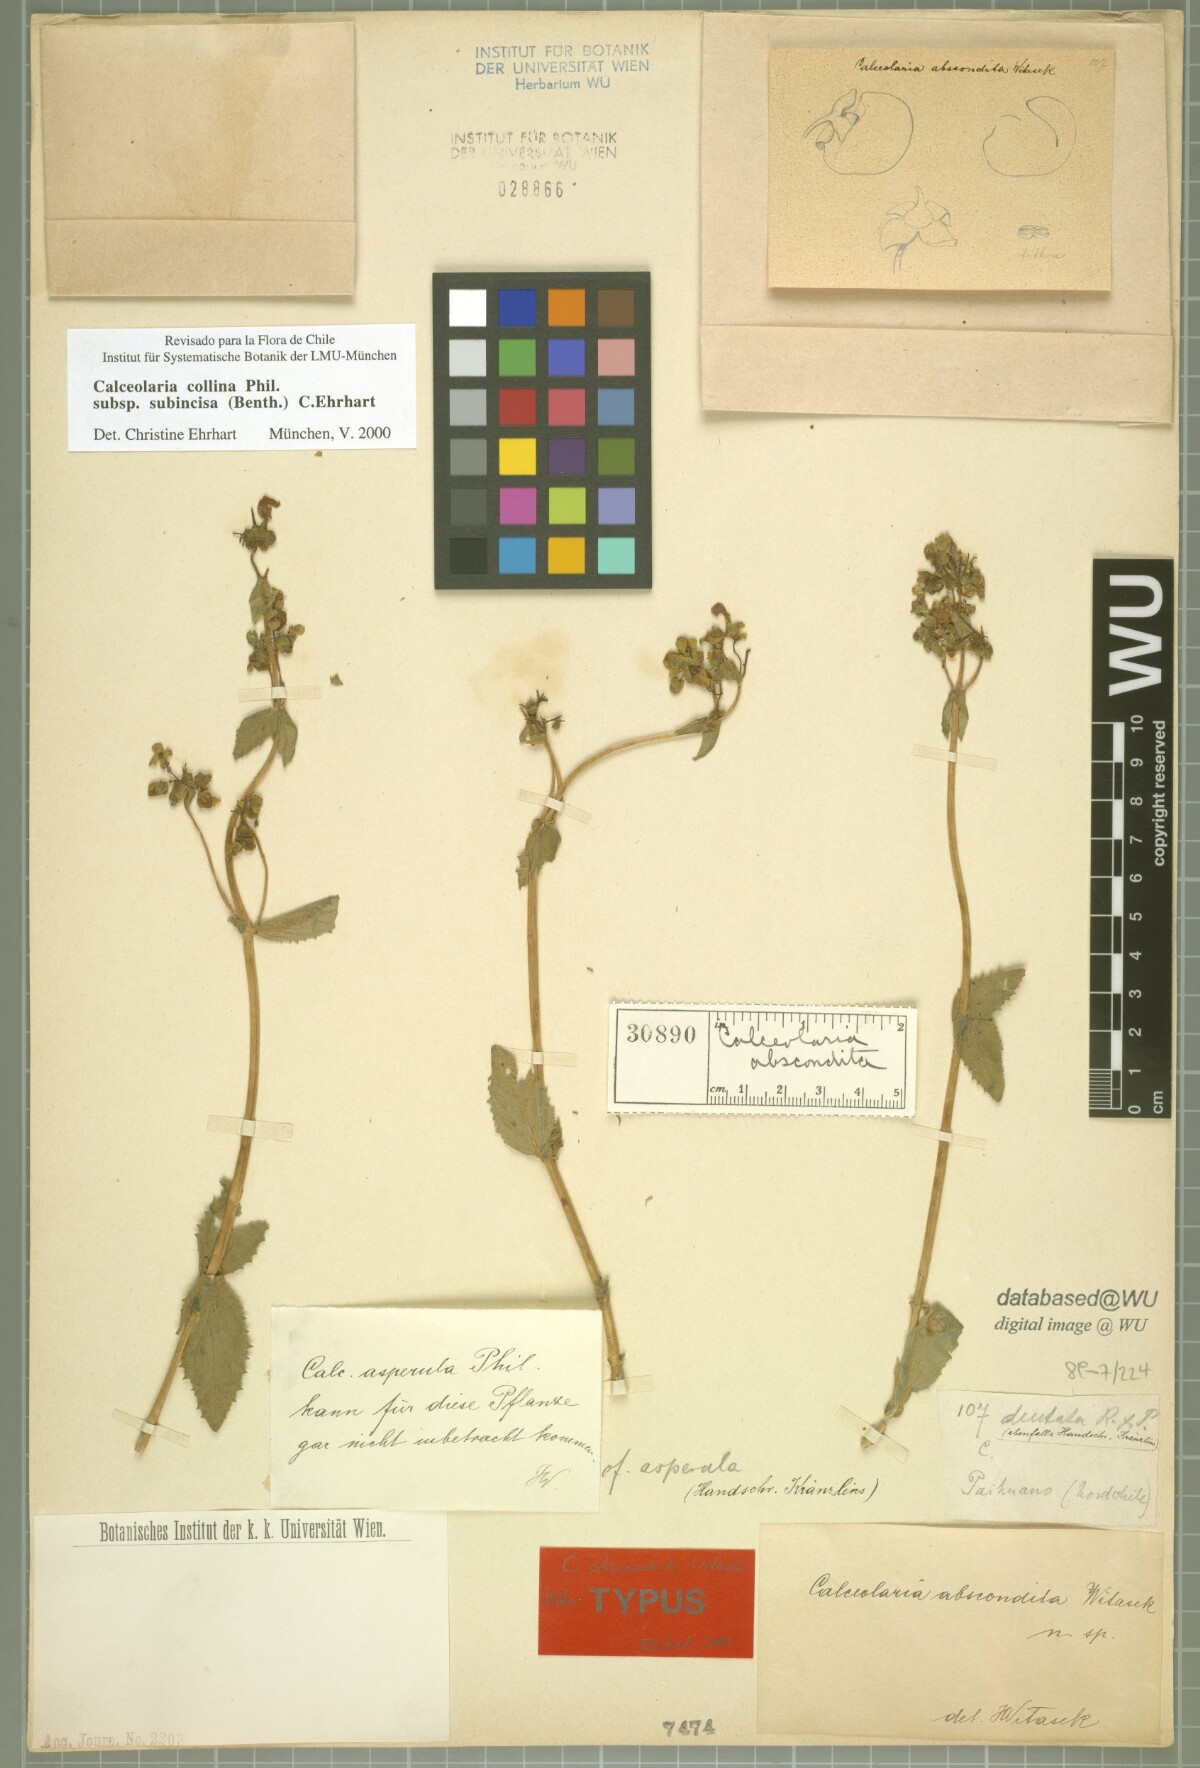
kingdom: Plantae
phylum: Tracheophyta
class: Magnoliopsida
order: Lamiales
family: Calceolariaceae
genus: Calceolaria
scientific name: Calceolaria collina
